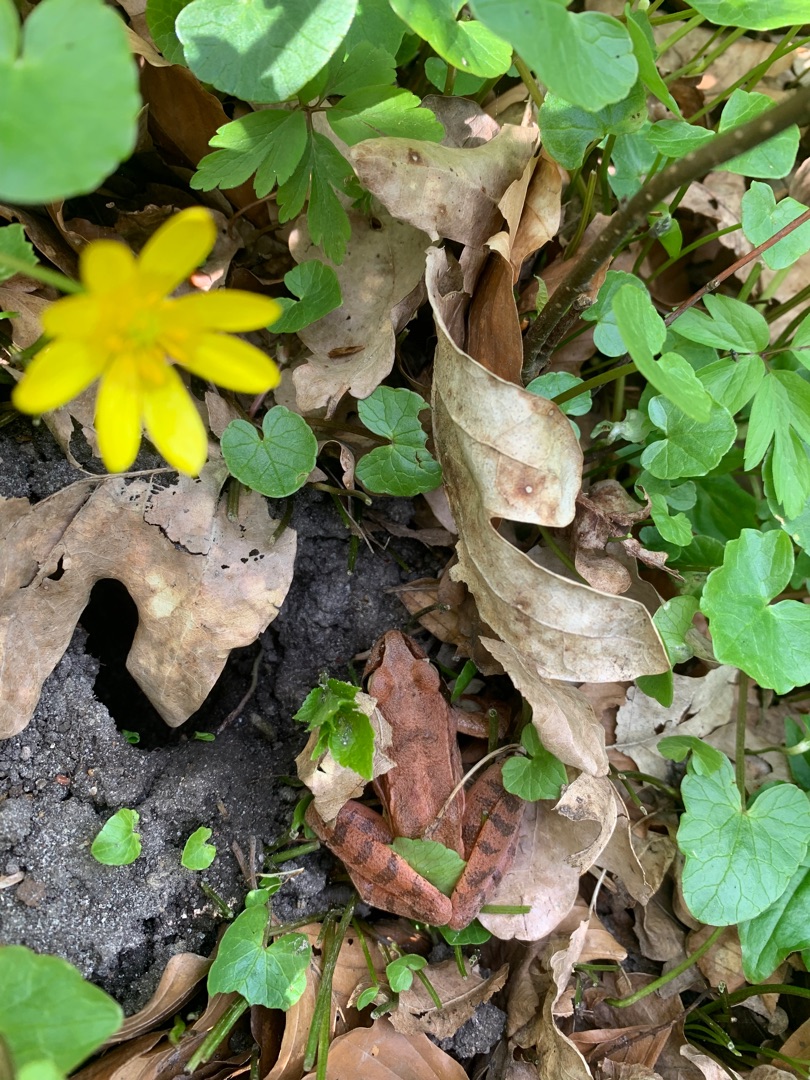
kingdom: Animalia
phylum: Chordata
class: Amphibia
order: Anura
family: Ranidae
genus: Rana
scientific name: Rana dalmatina
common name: Springfrø
